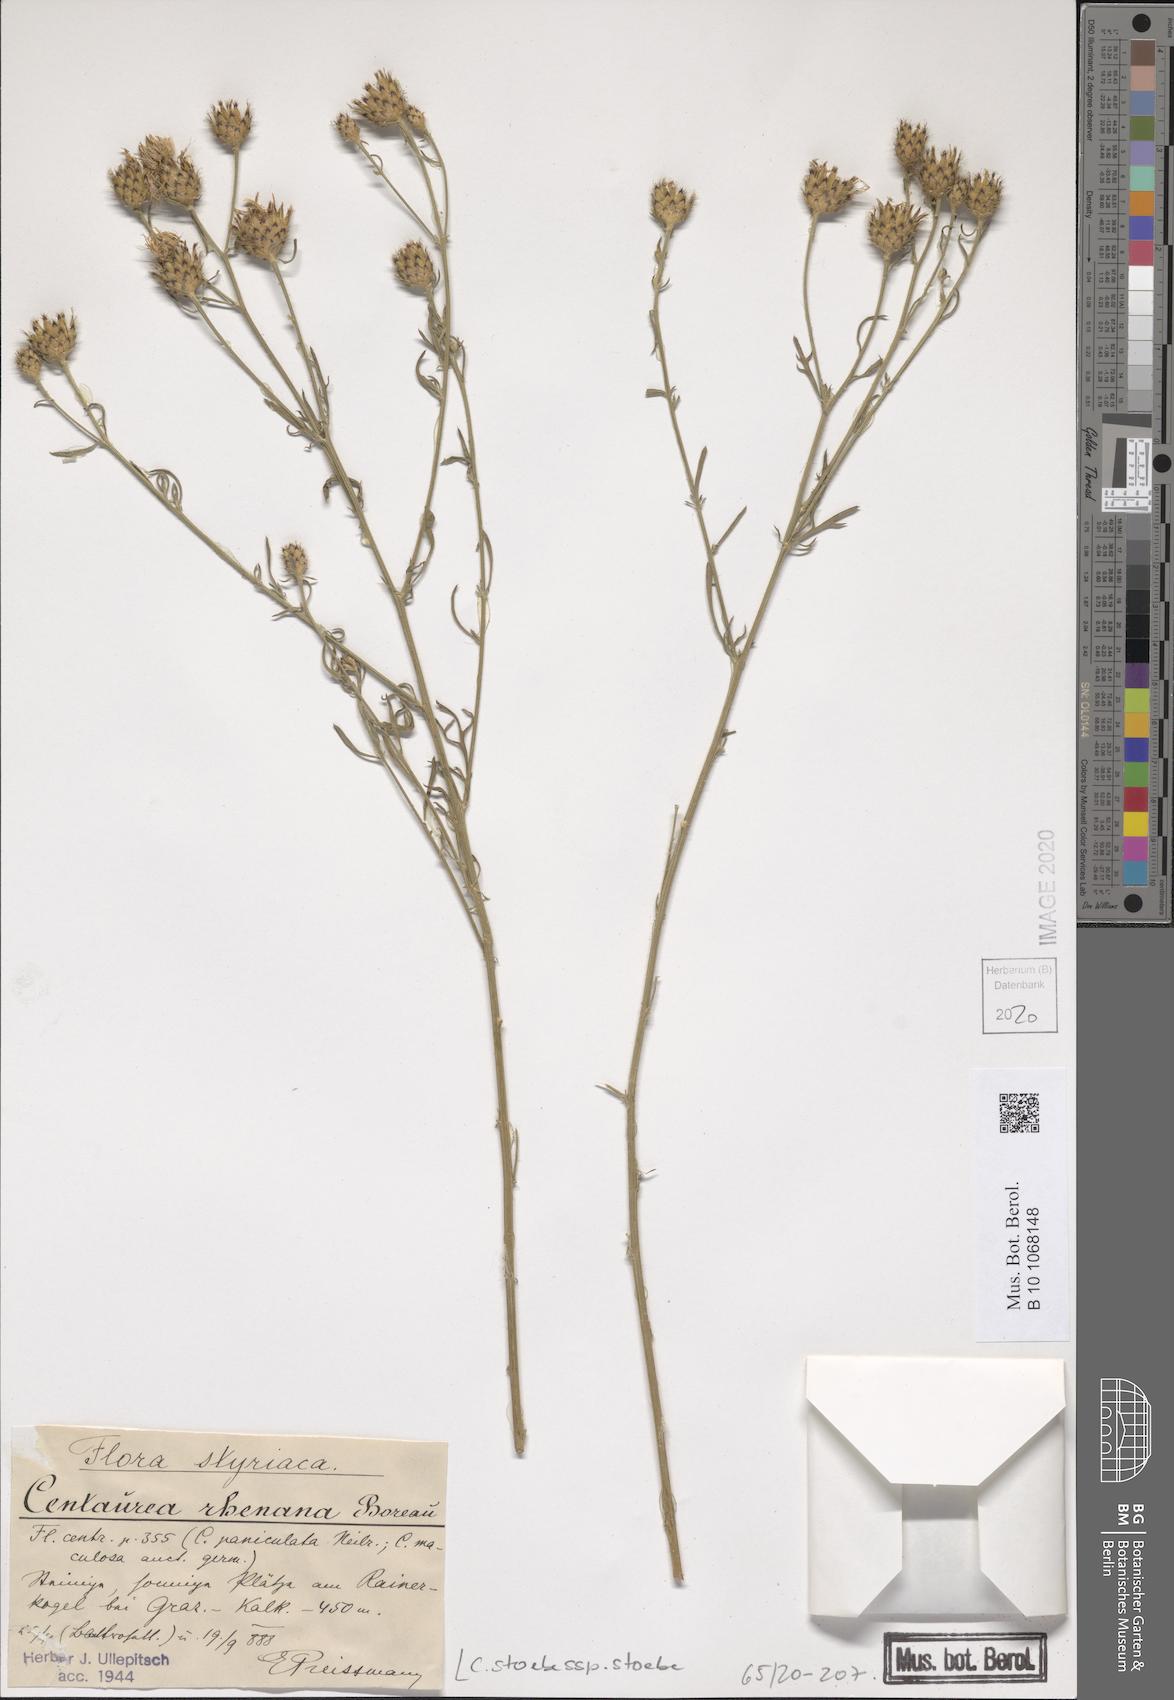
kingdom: Plantae
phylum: Tracheophyta
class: Magnoliopsida
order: Asterales
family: Asteraceae
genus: Centaurea
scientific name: Centaurea stoebe
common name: Spotted knapweed
